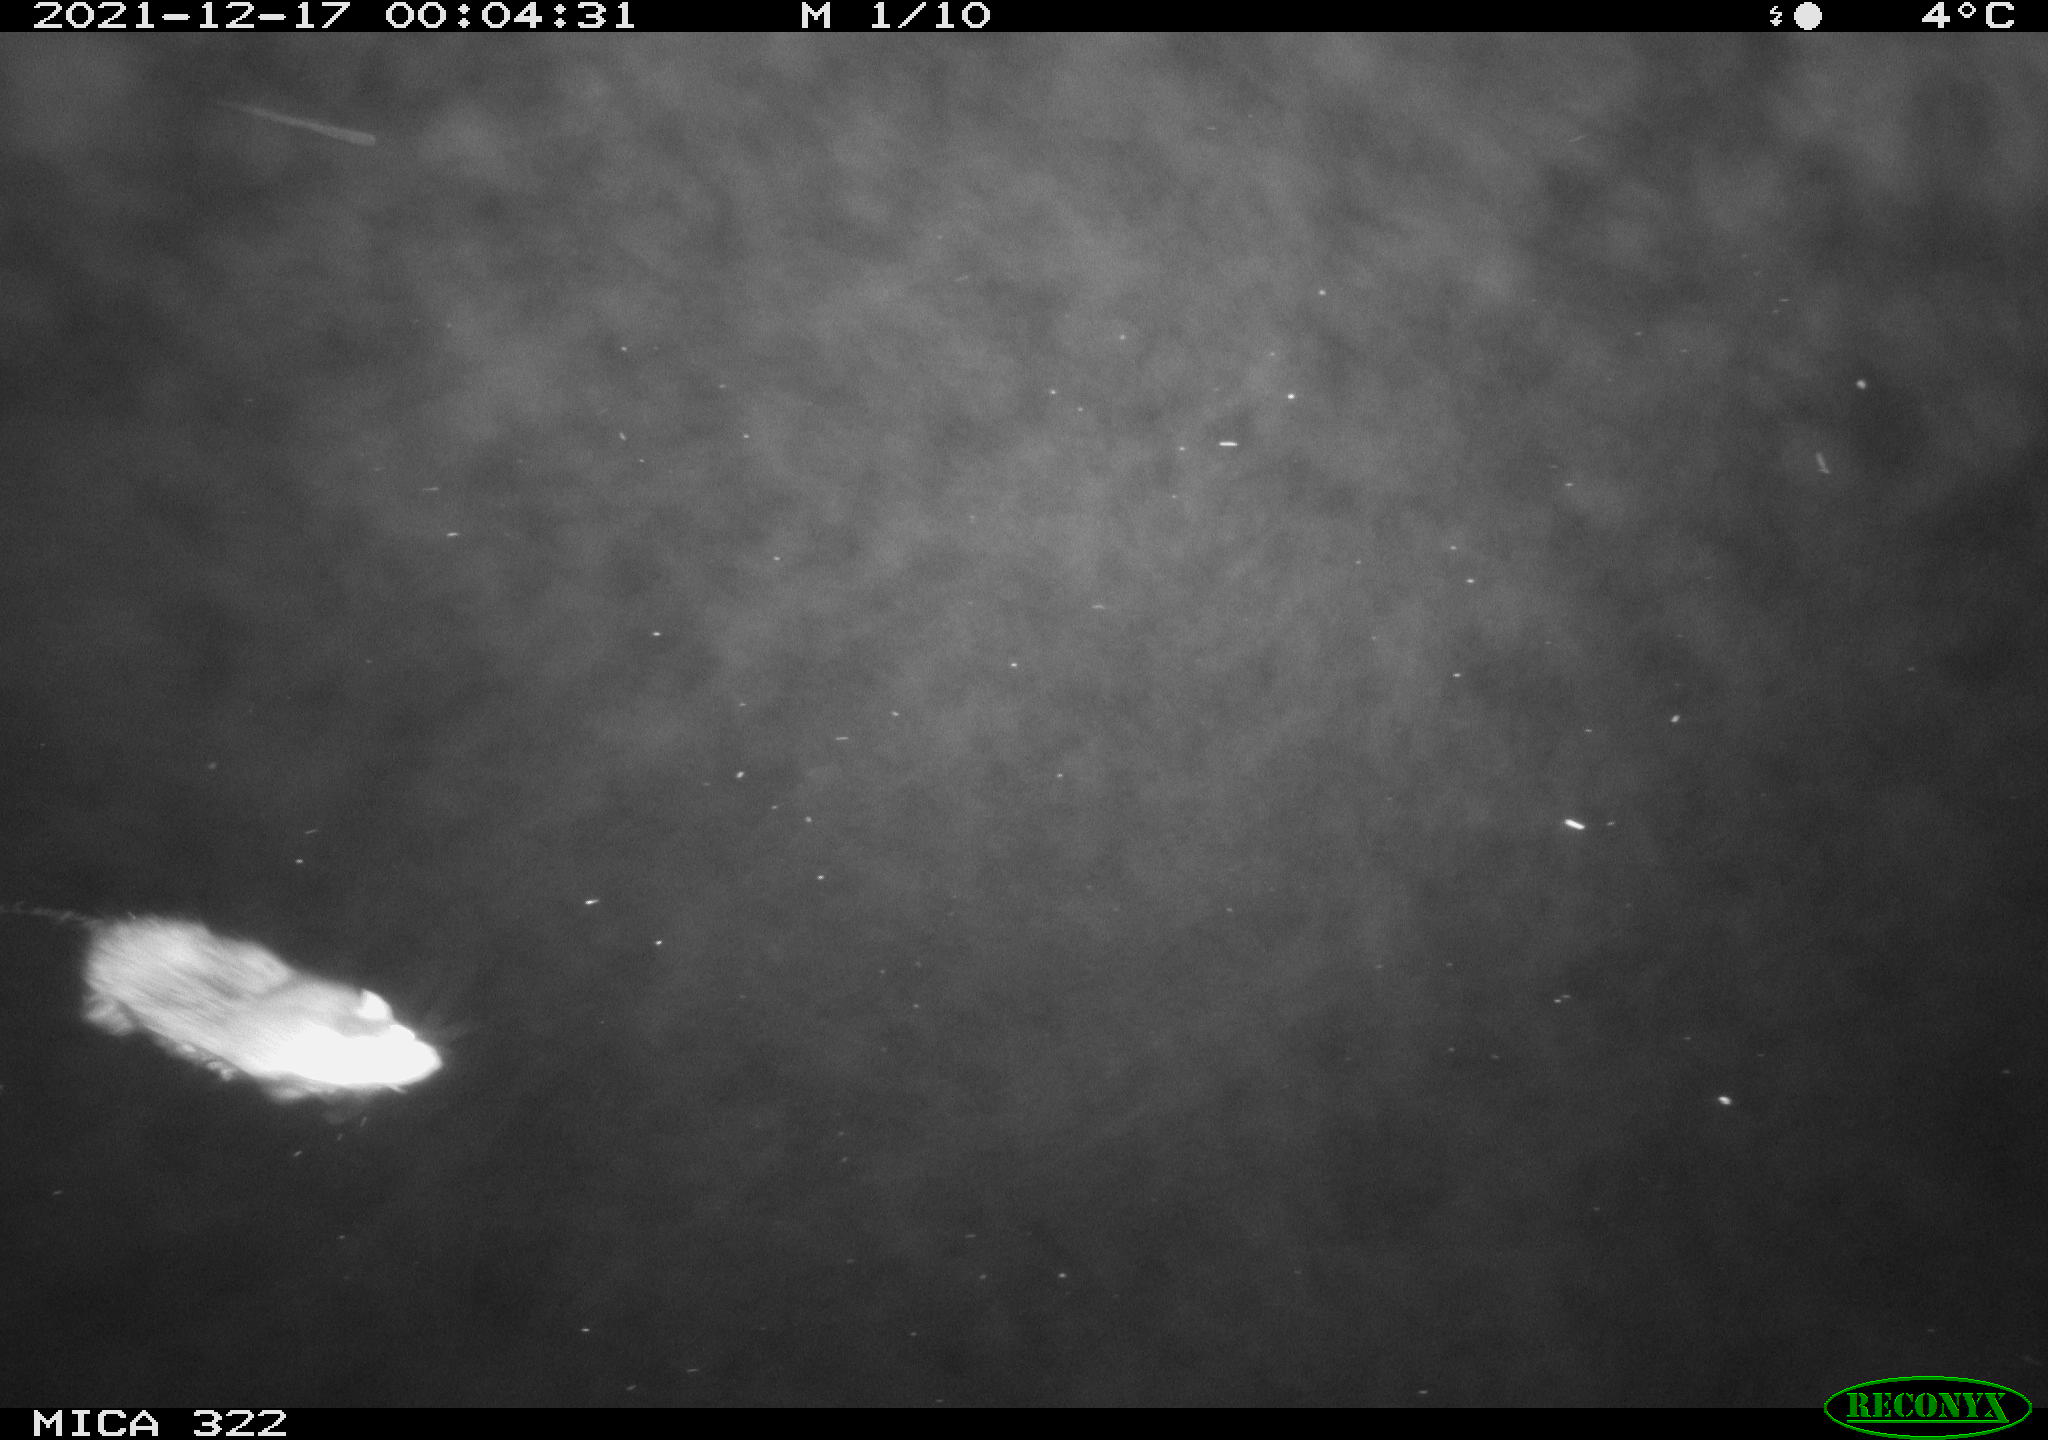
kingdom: Animalia
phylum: Chordata
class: Mammalia
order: Rodentia
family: Muridae
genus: Rattus
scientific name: Rattus norvegicus
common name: Brown rat
